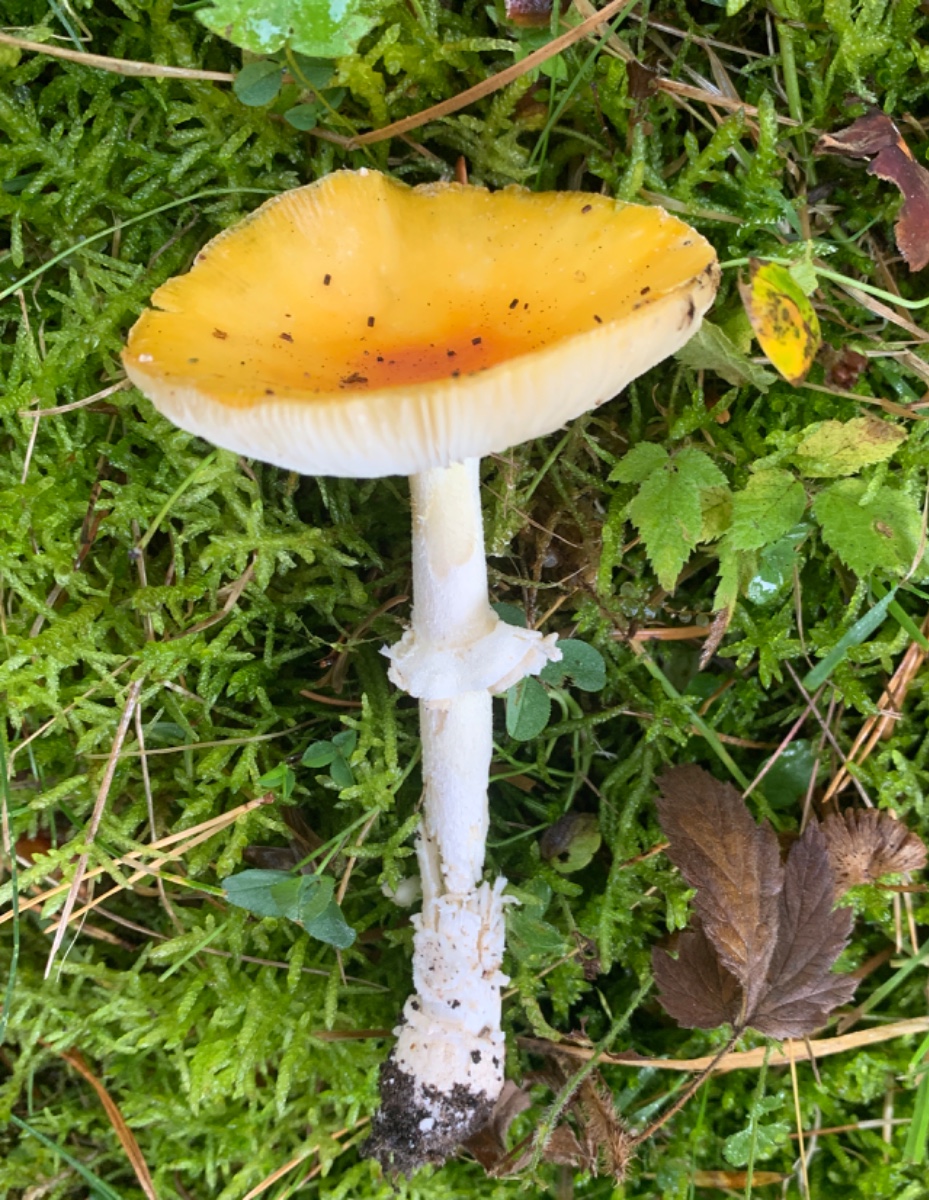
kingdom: Fungi
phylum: Basidiomycota
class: Agaricomycetes
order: Agaricales
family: Amanitaceae
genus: Amanita
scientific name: Amanita muscaria
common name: rød fluesvamp
